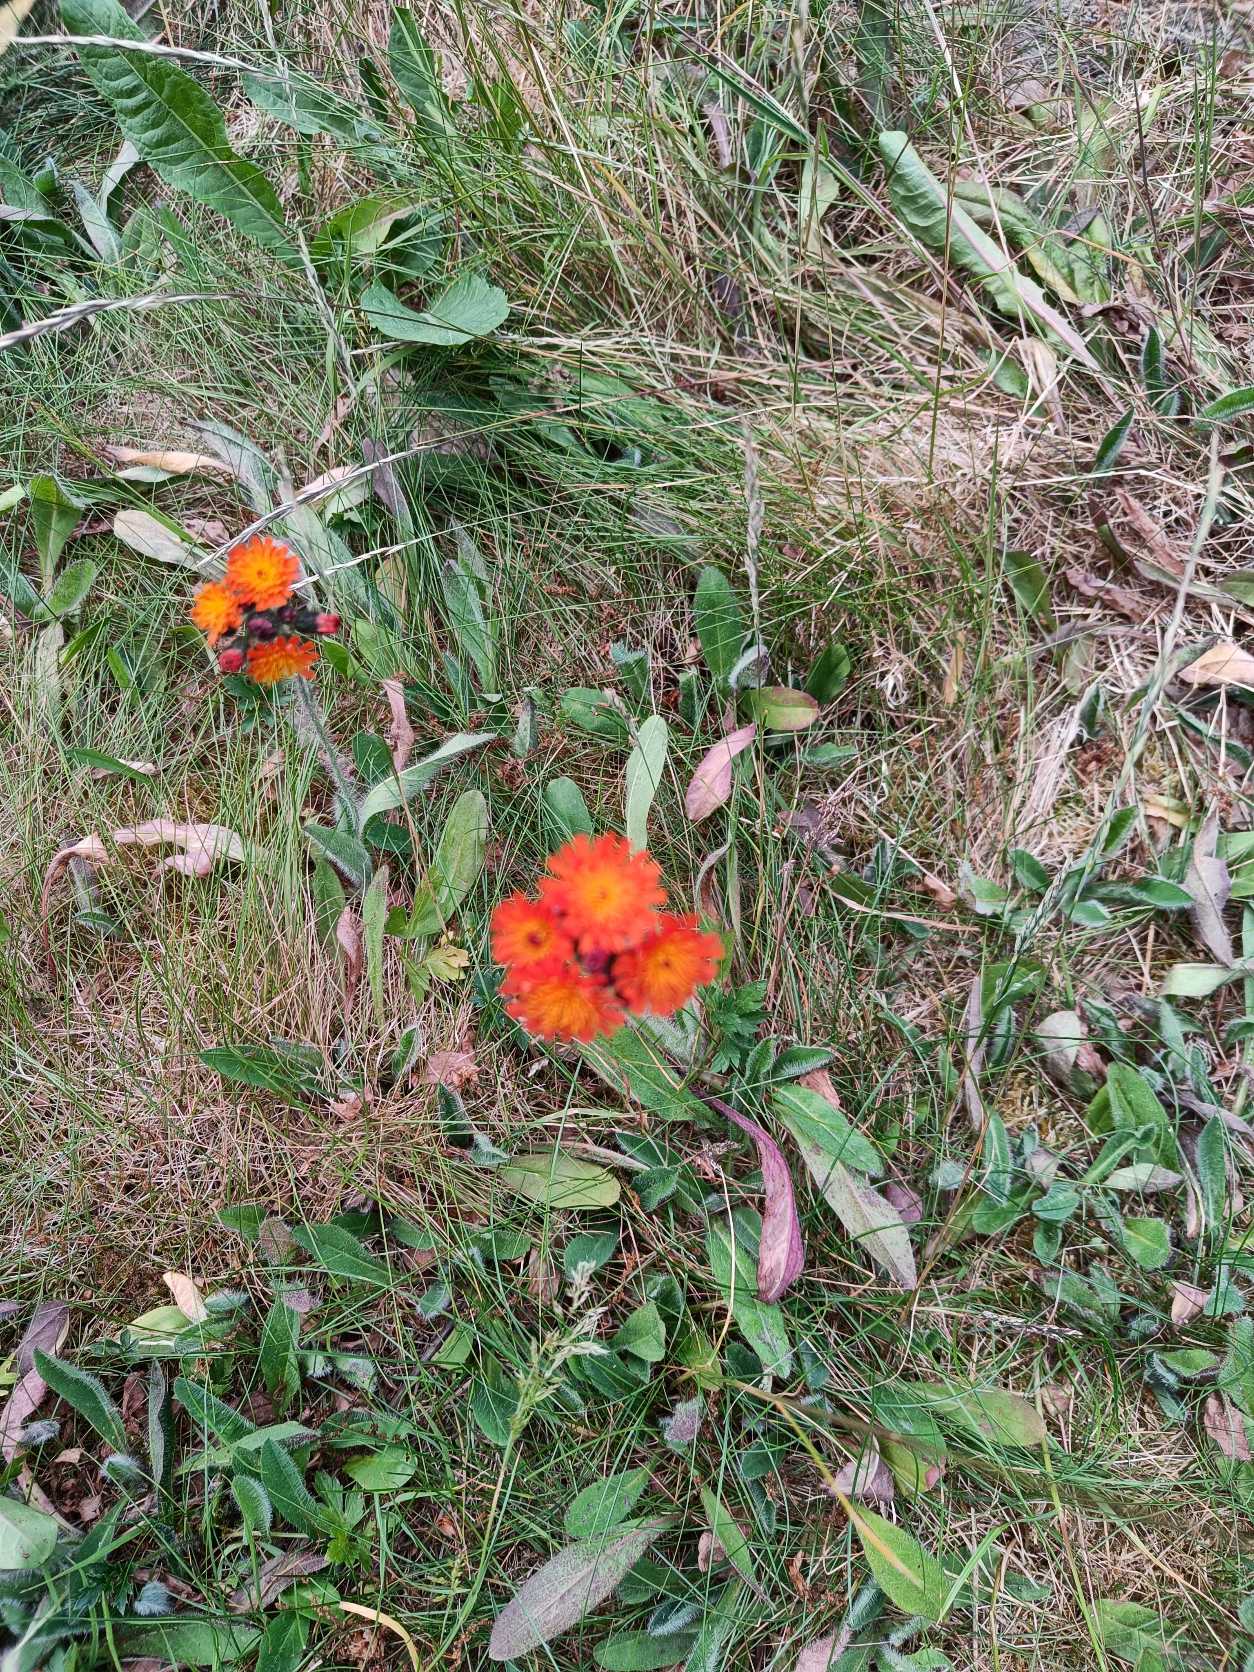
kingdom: Plantae
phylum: Tracheophyta
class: Magnoliopsida
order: Asterales
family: Asteraceae
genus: Pilosella
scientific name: Pilosella aurantiaca
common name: Pomerans-høgeurt
